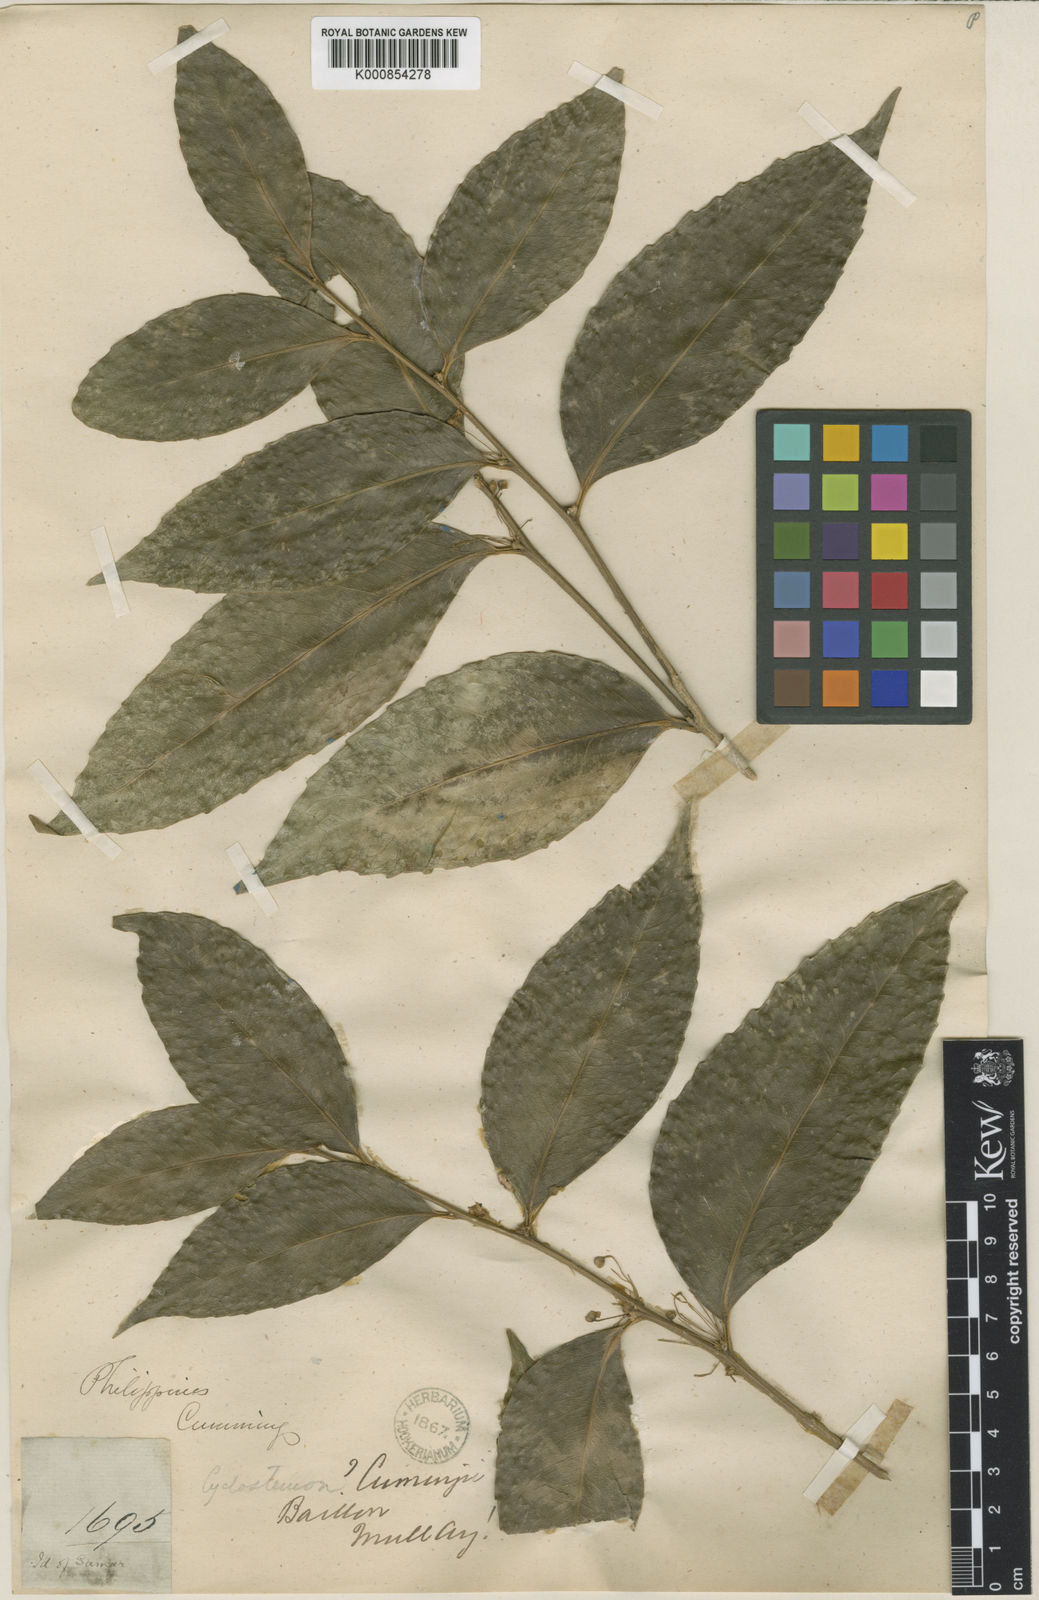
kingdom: Plantae
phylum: Tracheophyta
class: Magnoliopsida
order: Malpighiales
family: Putranjivaceae
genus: Drypetes
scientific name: Drypetes cumingii
